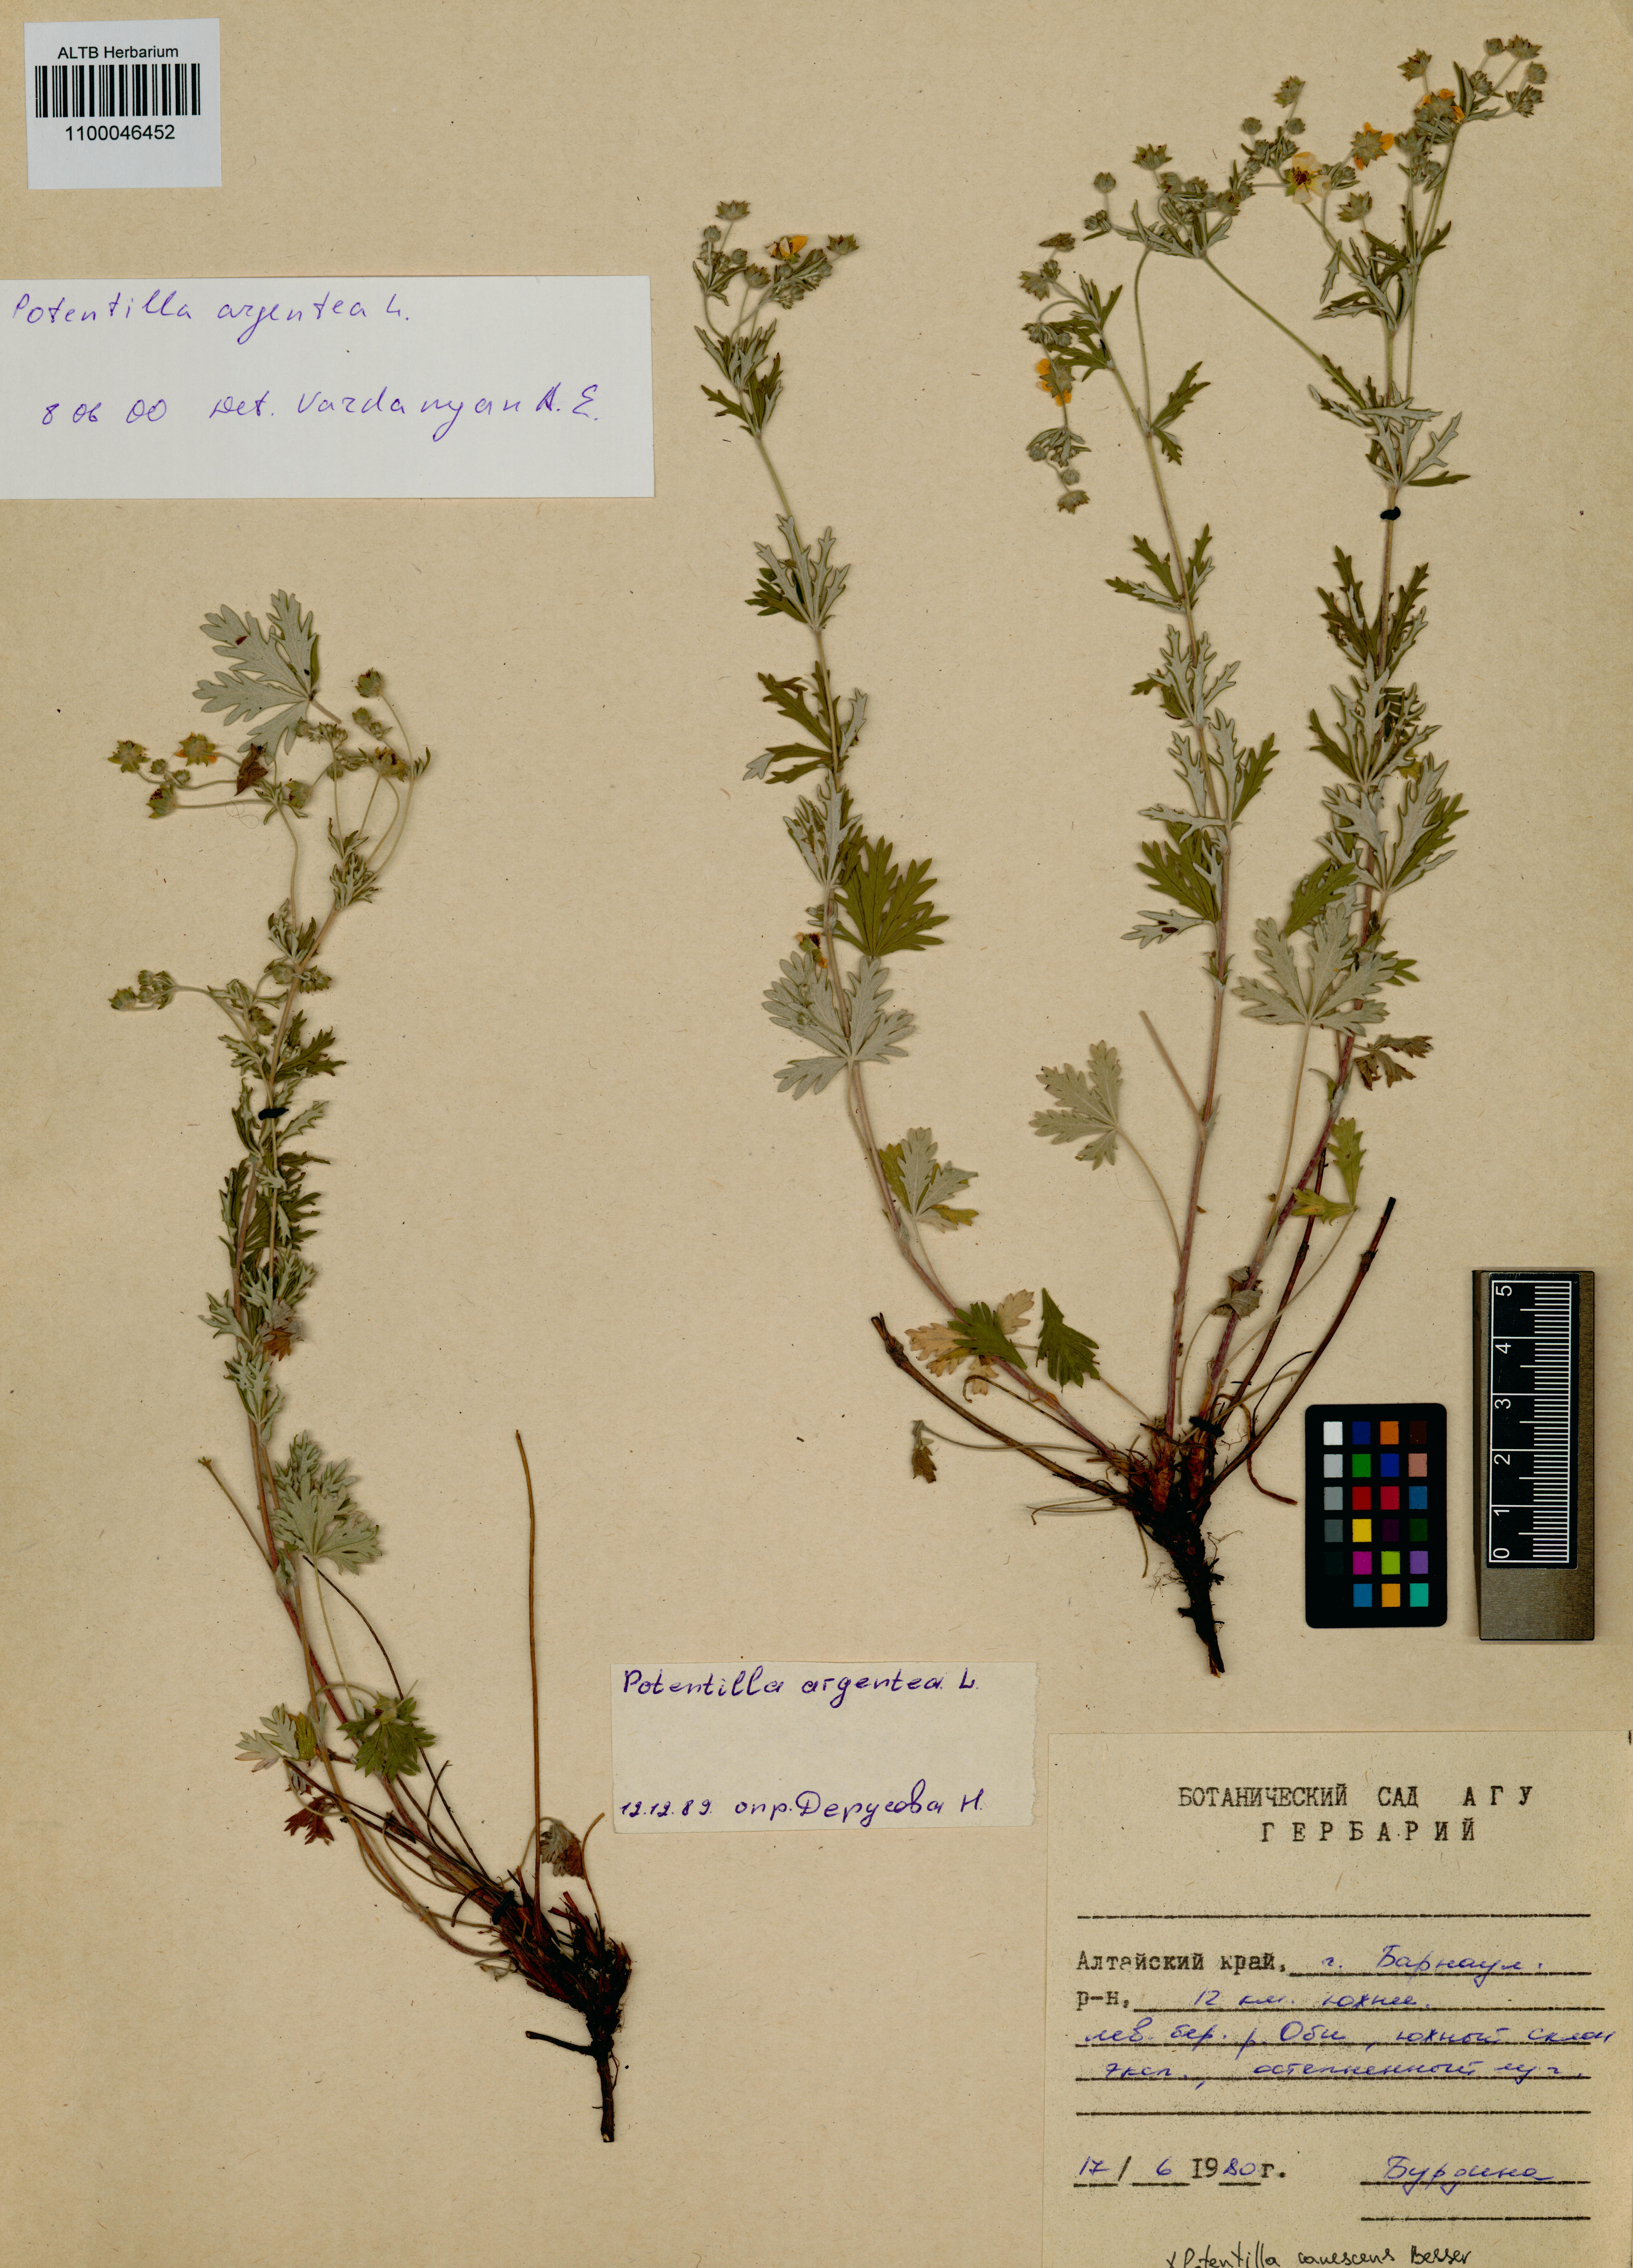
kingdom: Plantae
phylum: Tracheophyta
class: Magnoliopsida
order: Rosales
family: Rosaceae
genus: Potentilla
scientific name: Potentilla argentea
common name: Hoary cinquefoil
